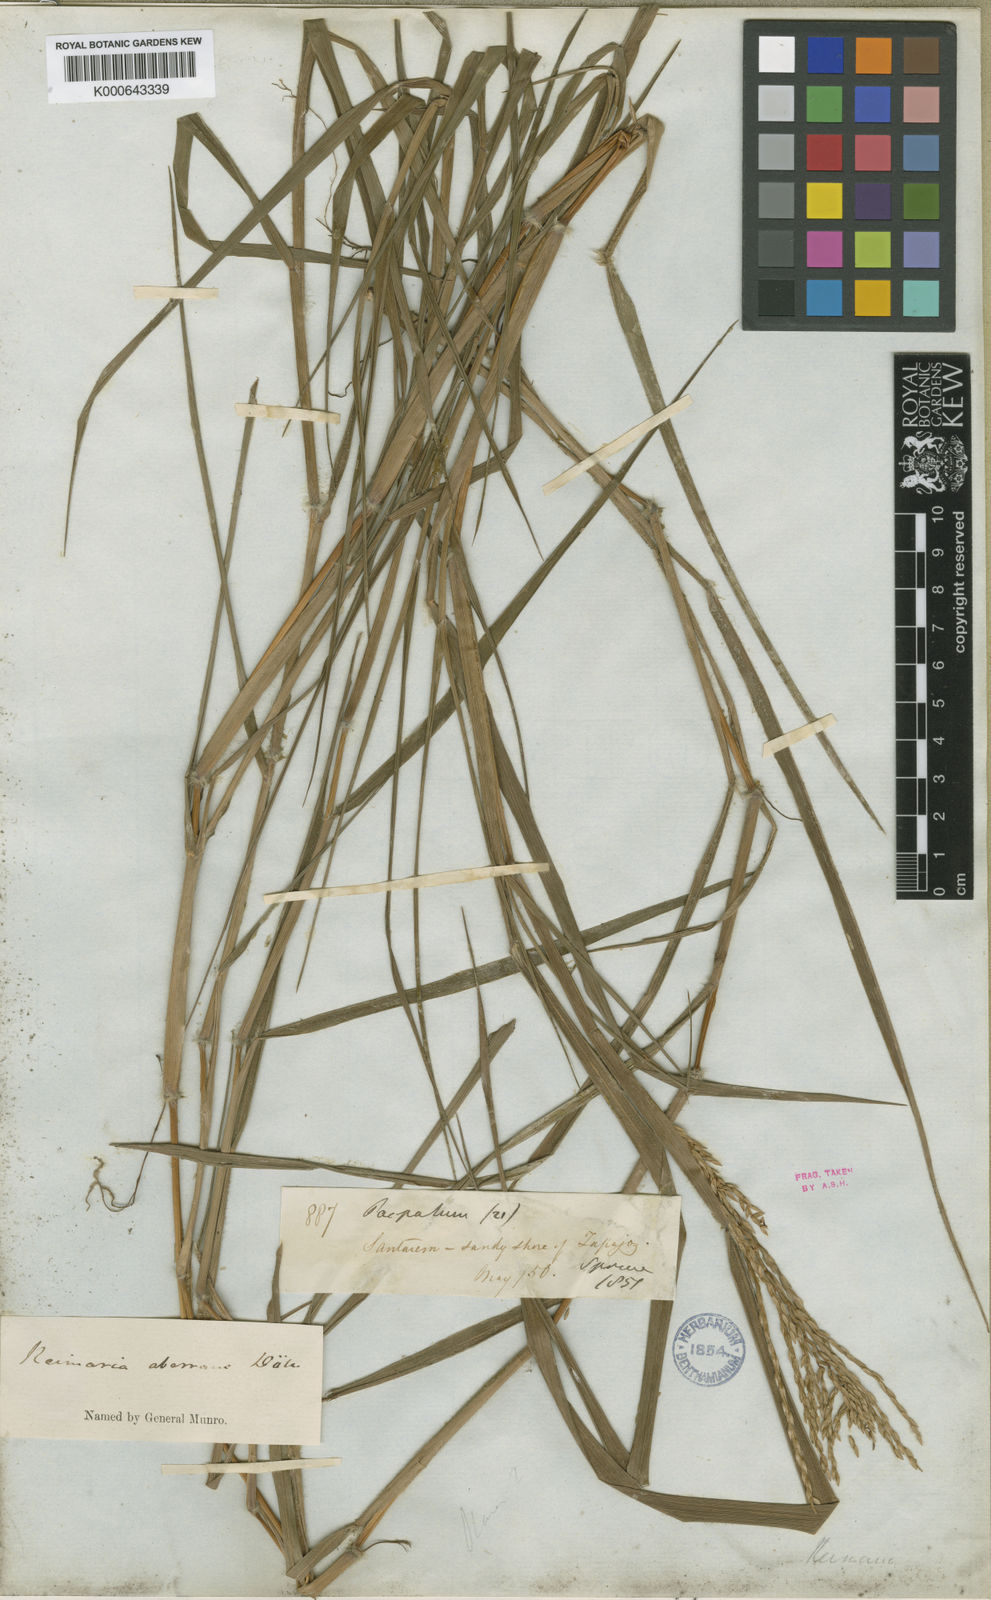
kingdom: Plantae
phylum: Tracheophyta
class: Liliopsida
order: Poales
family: Poaceae
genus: Paspalum
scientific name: Paspalum
